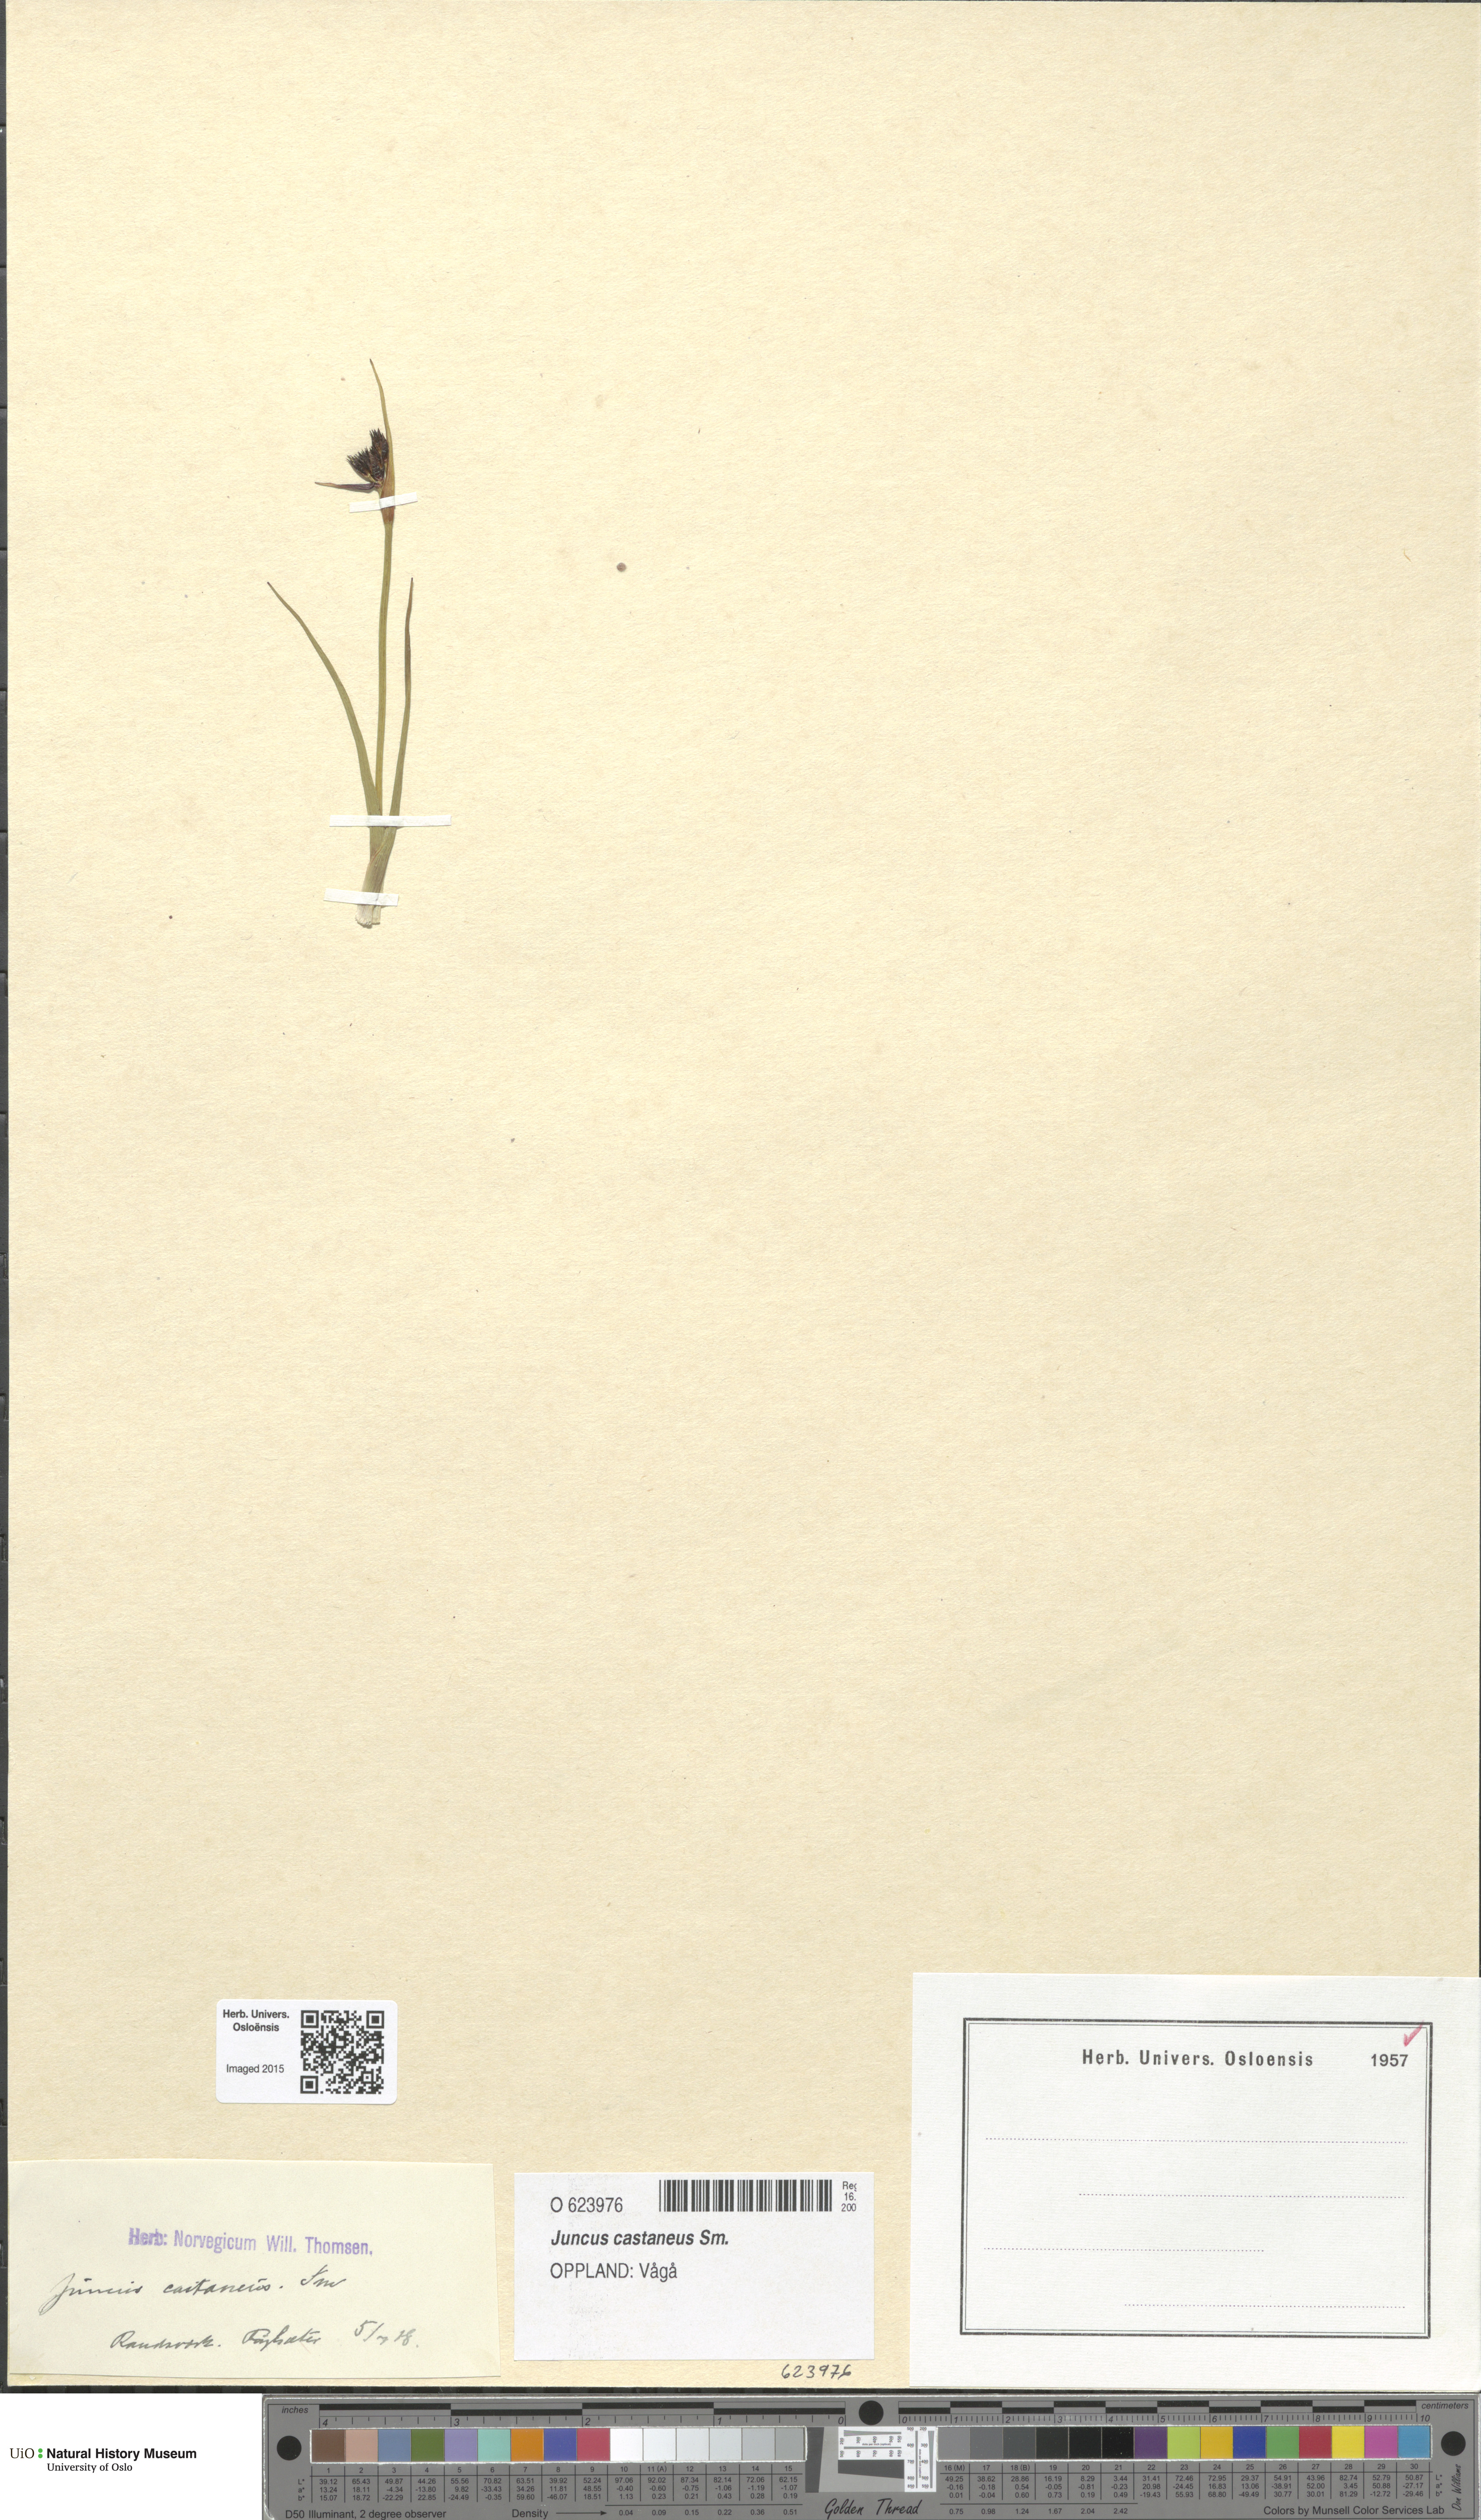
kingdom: Plantae
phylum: Tracheophyta
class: Liliopsida
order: Poales
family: Juncaceae
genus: Juncus
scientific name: Juncus castaneus
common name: Chestnut rush
